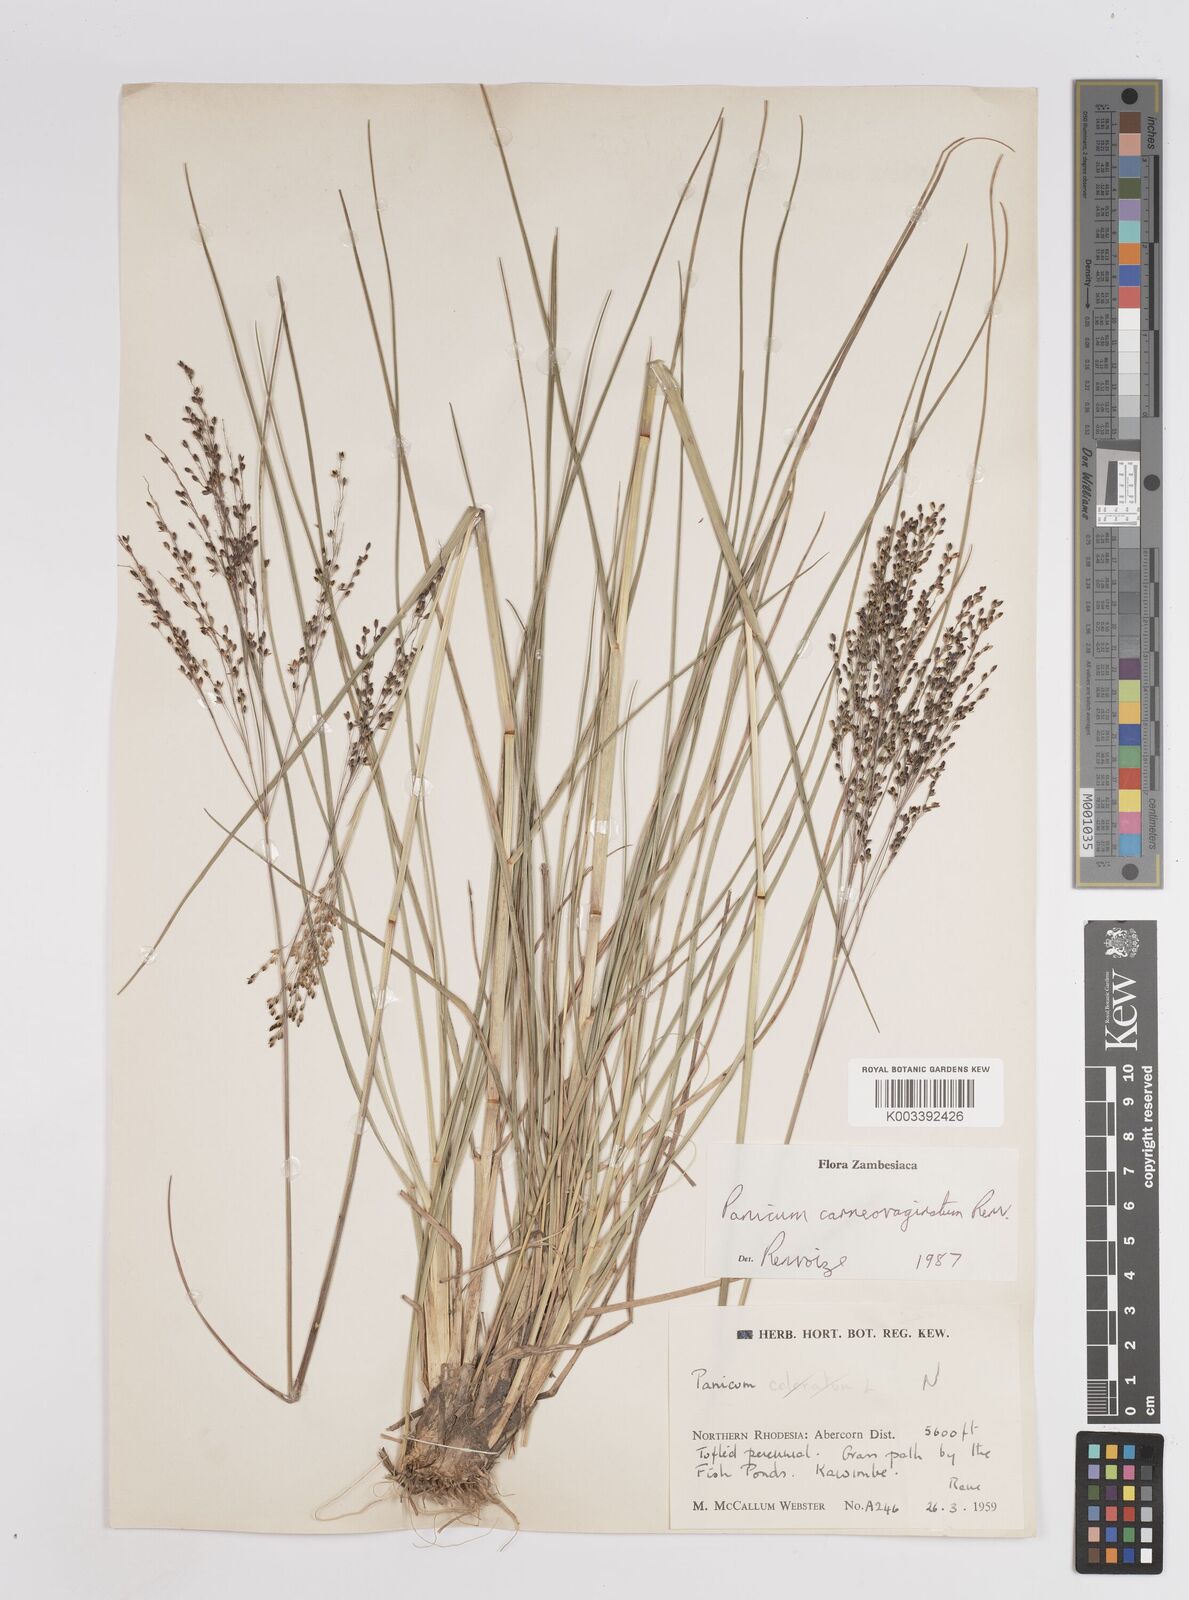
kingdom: Plantae
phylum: Tracheophyta
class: Liliopsida
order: Poales
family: Poaceae
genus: Panicum
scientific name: Panicum carneovaginatum
